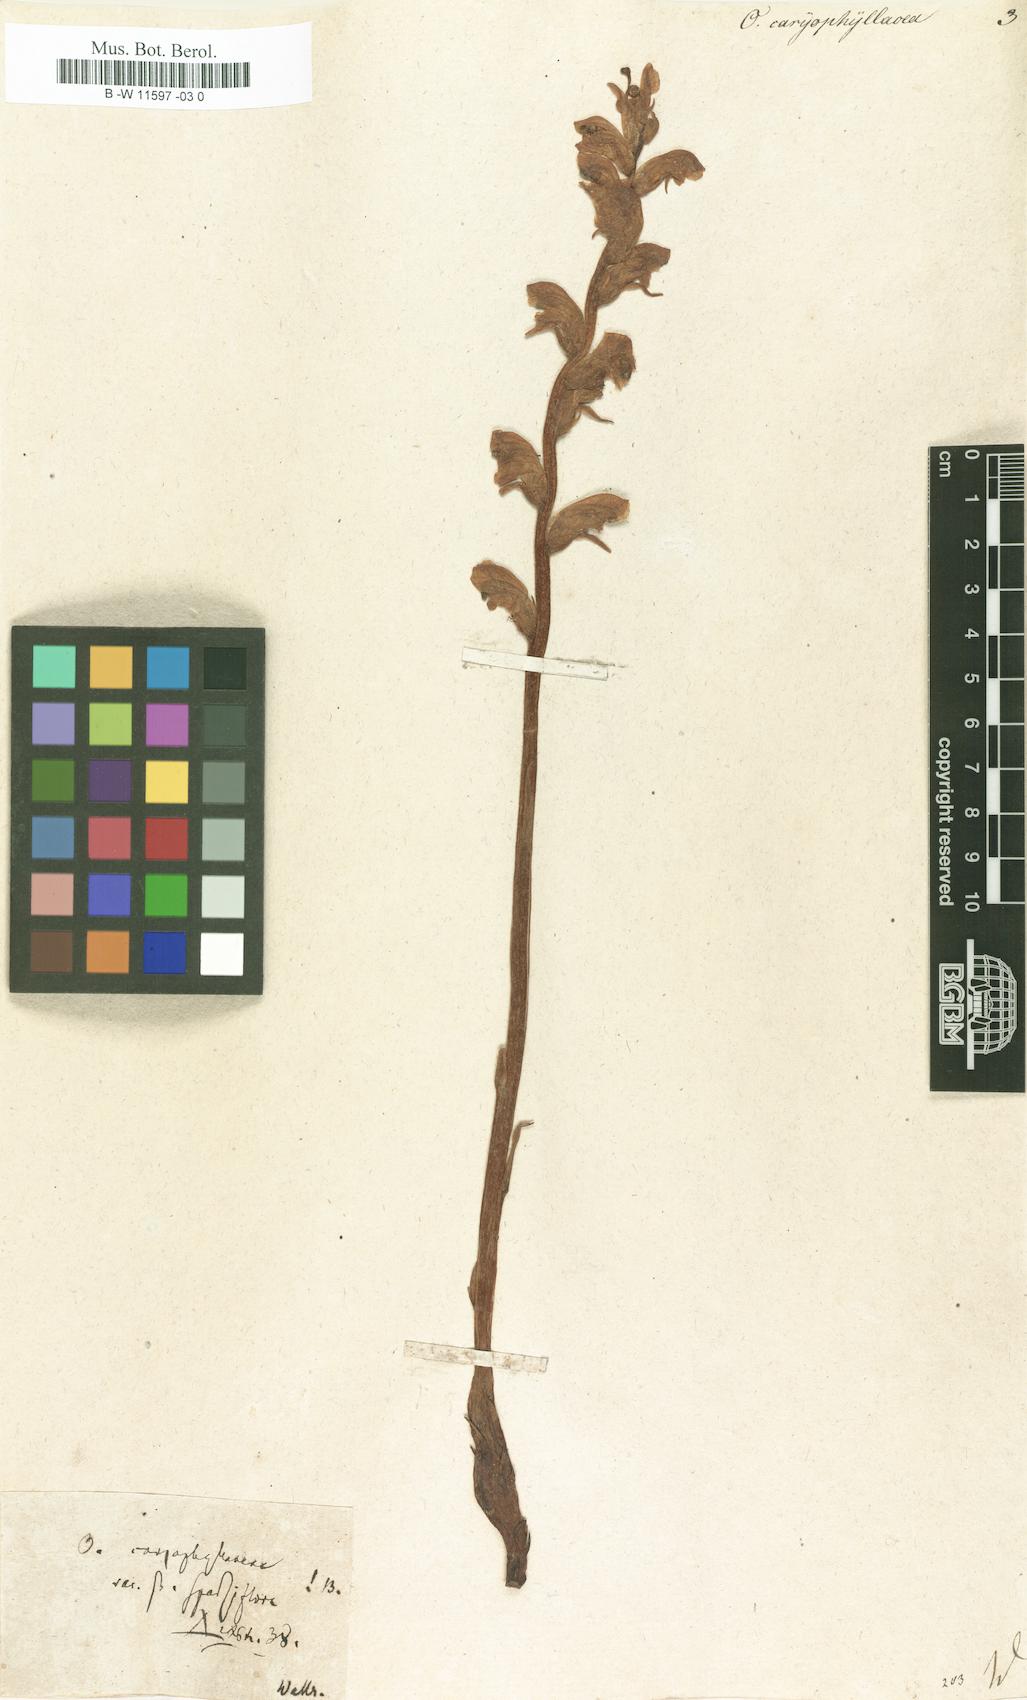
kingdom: Plantae
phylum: Tracheophyta
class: Magnoliopsida
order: Lamiales
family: Orobanchaceae
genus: Orobanche
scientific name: Orobanche caryophyllacea
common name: Bedstraw broomrape
